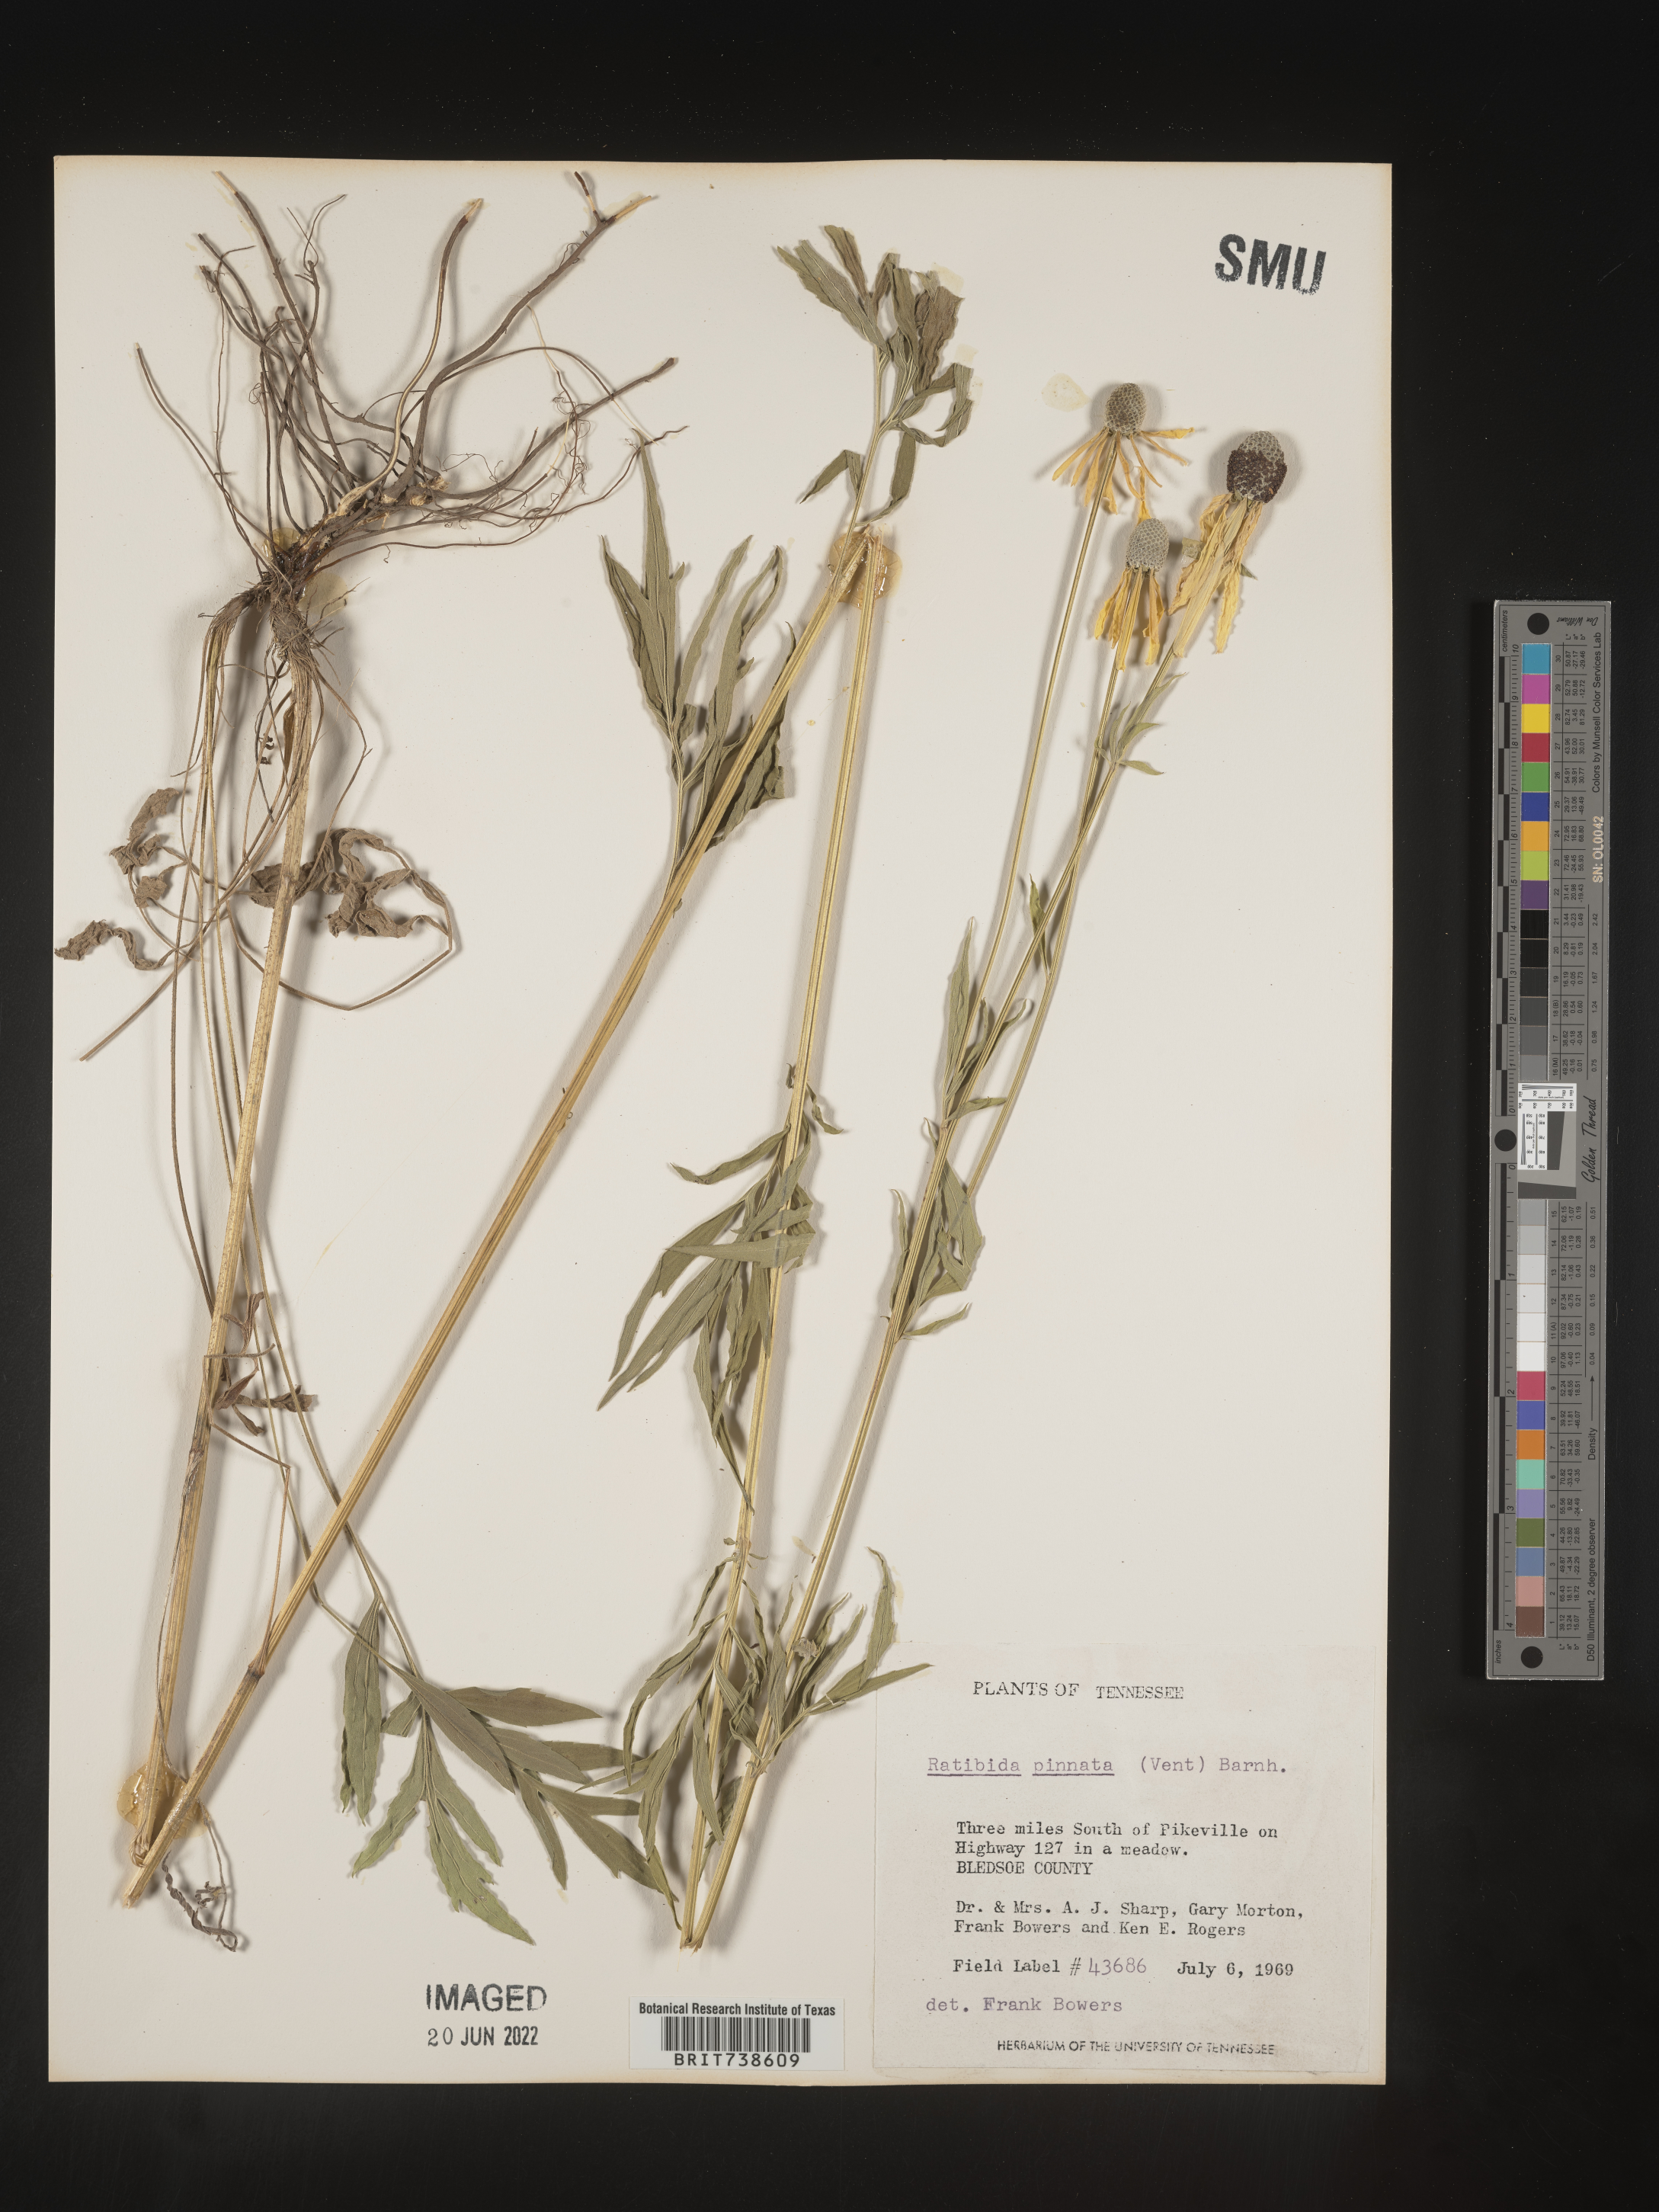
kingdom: Plantae
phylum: Tracheophyta
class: Magnoliopsida
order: Asterales
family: Asteraceae
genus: Ratibida
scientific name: Ratibida pinnata
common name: Drooping prairie-coneflower
